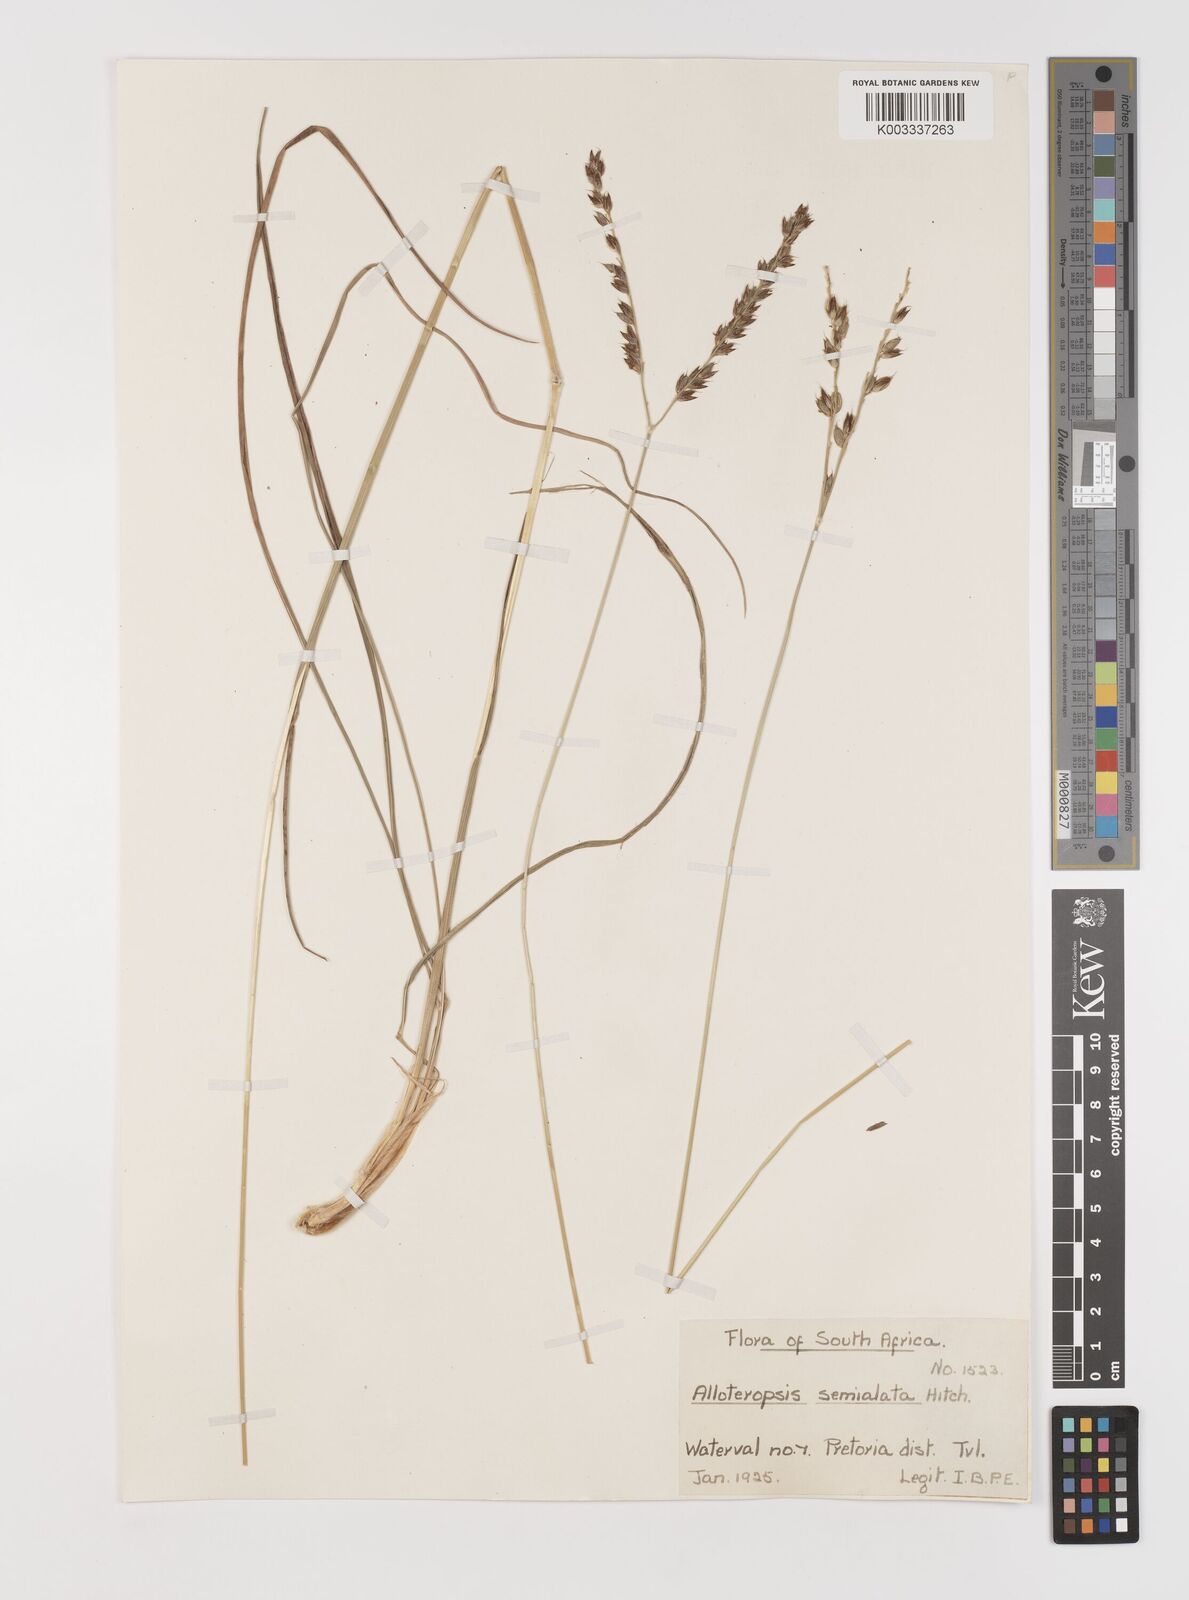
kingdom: Plantae
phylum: Tracheophyta
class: Liliopsida
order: Poales
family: Poaceae
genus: Alloteropsis
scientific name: Alloteropsis semialata
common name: Cockatoo grass
